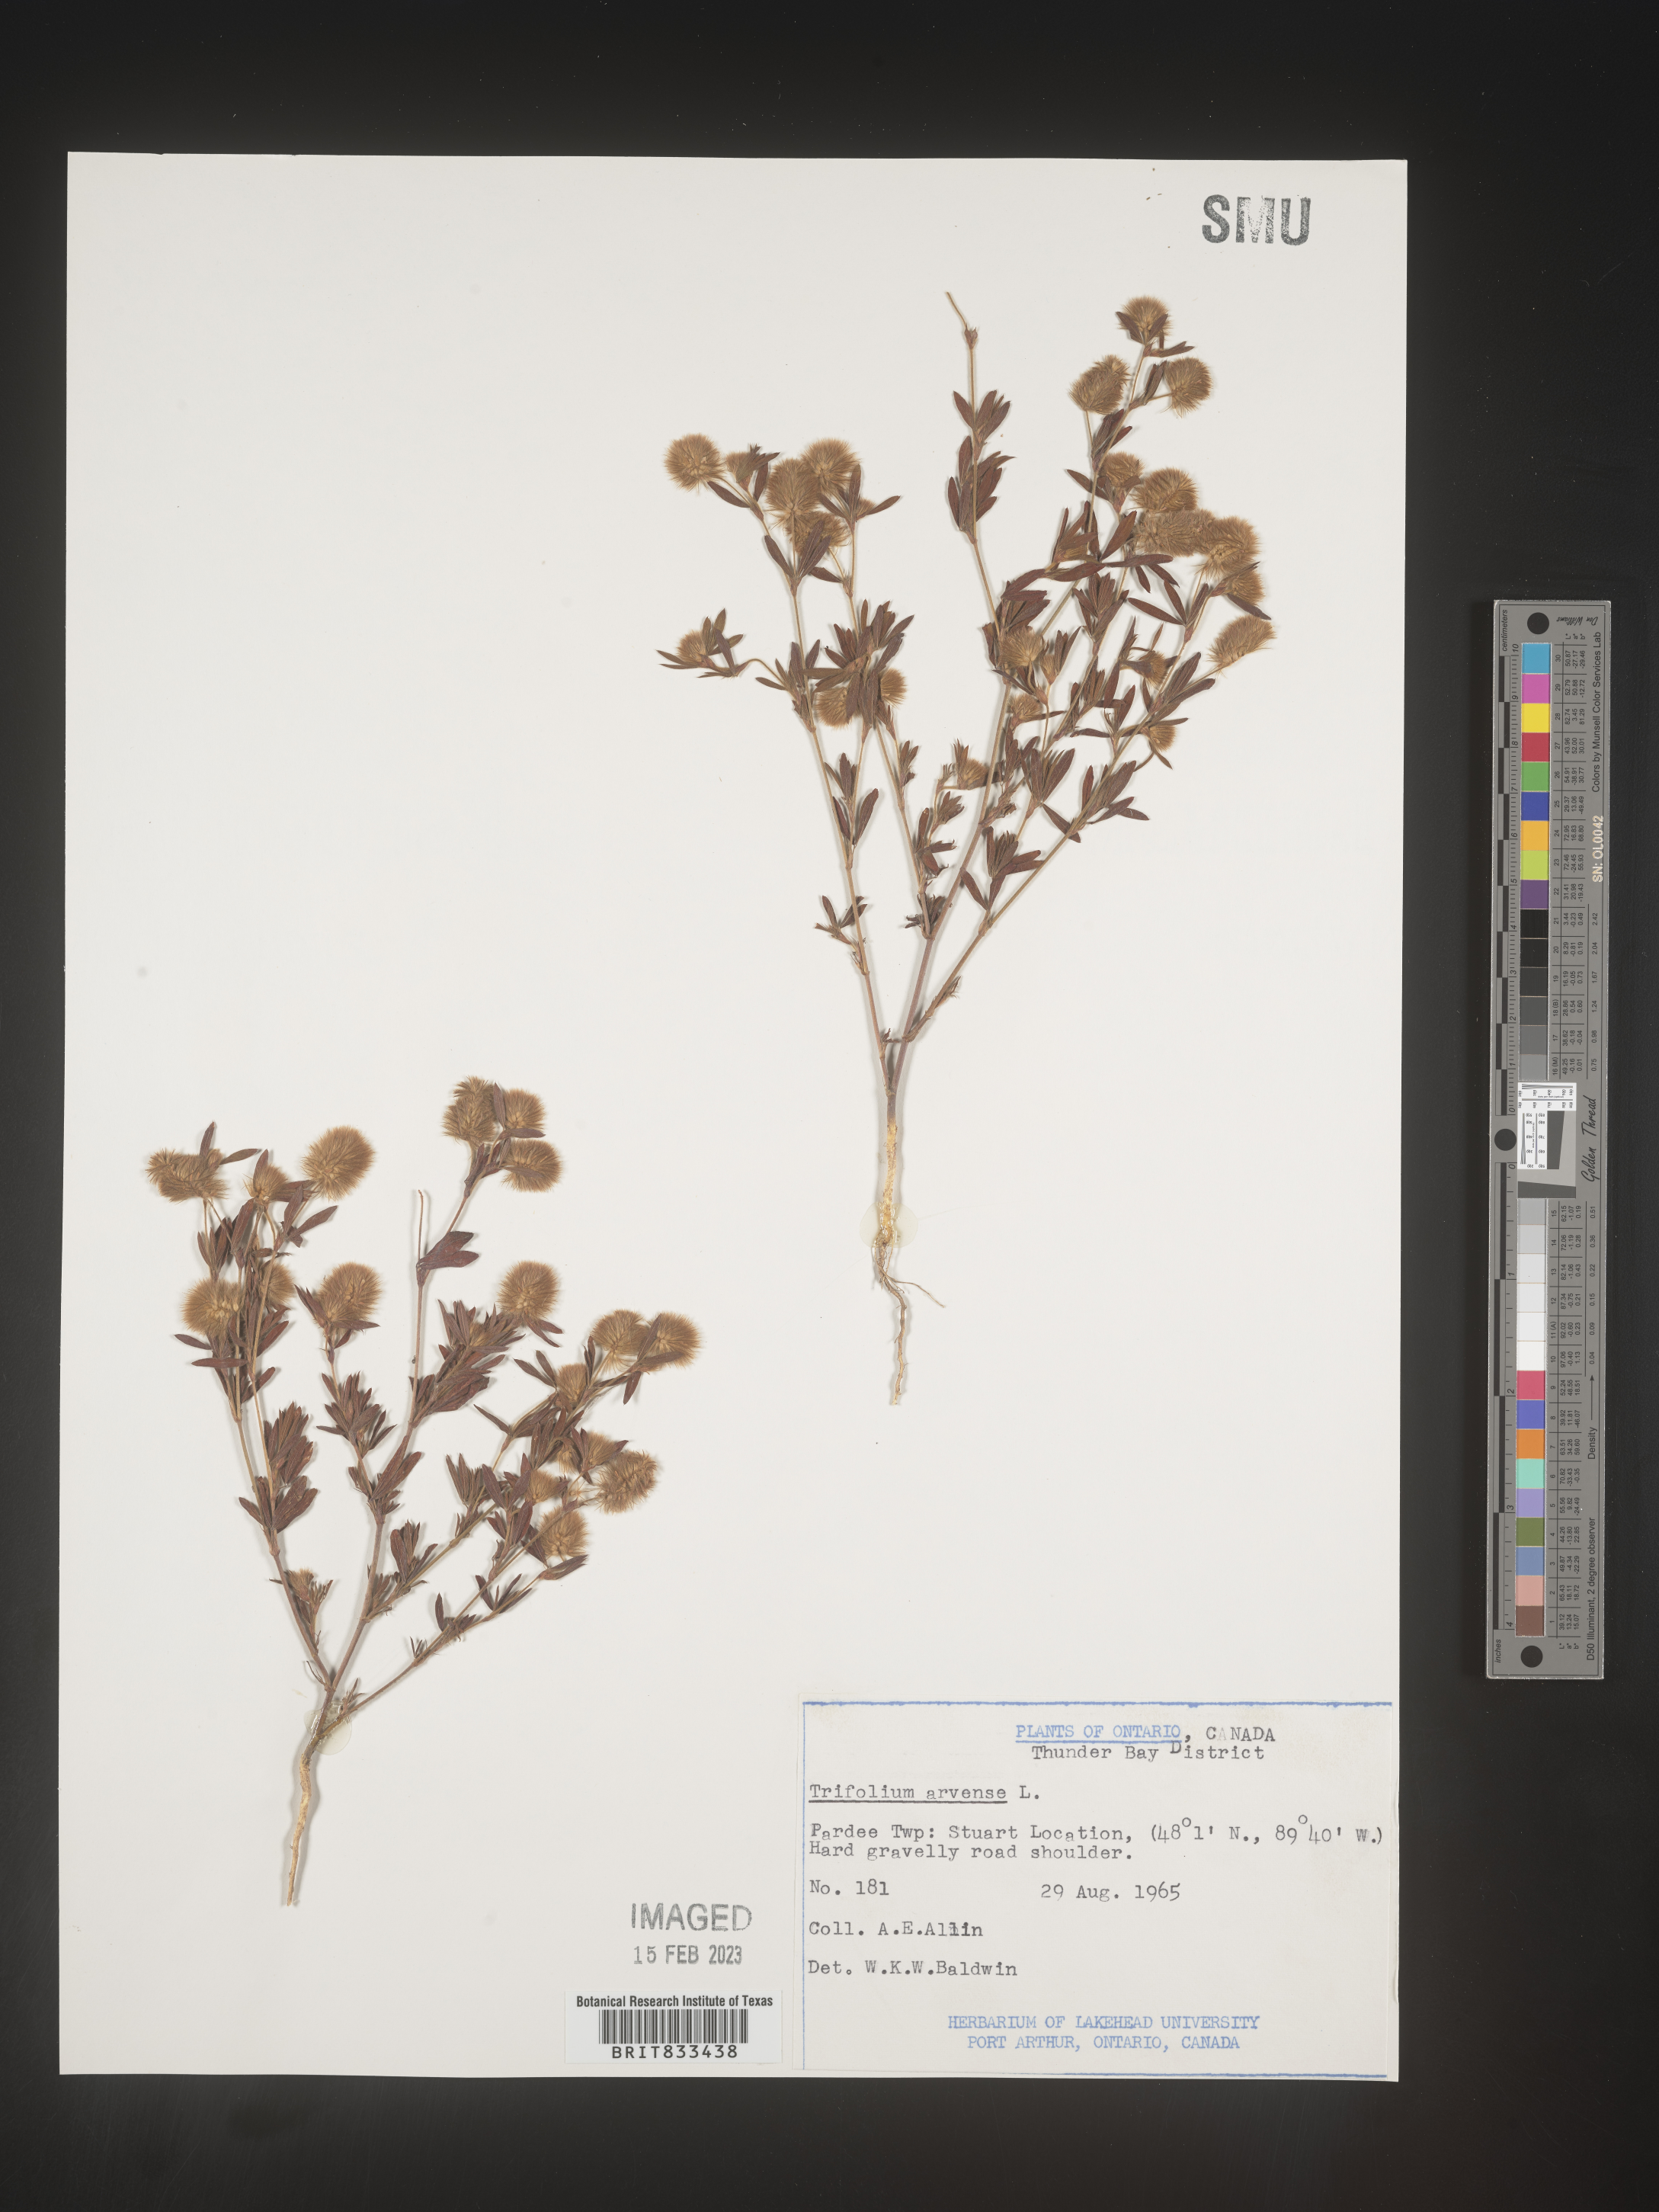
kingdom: Plantae
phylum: Tracheophyta
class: Magnoliopsida
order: Fabales
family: Fabaceae
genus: Trifolium
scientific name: Trifolium arvense
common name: Hare's-foot clover
